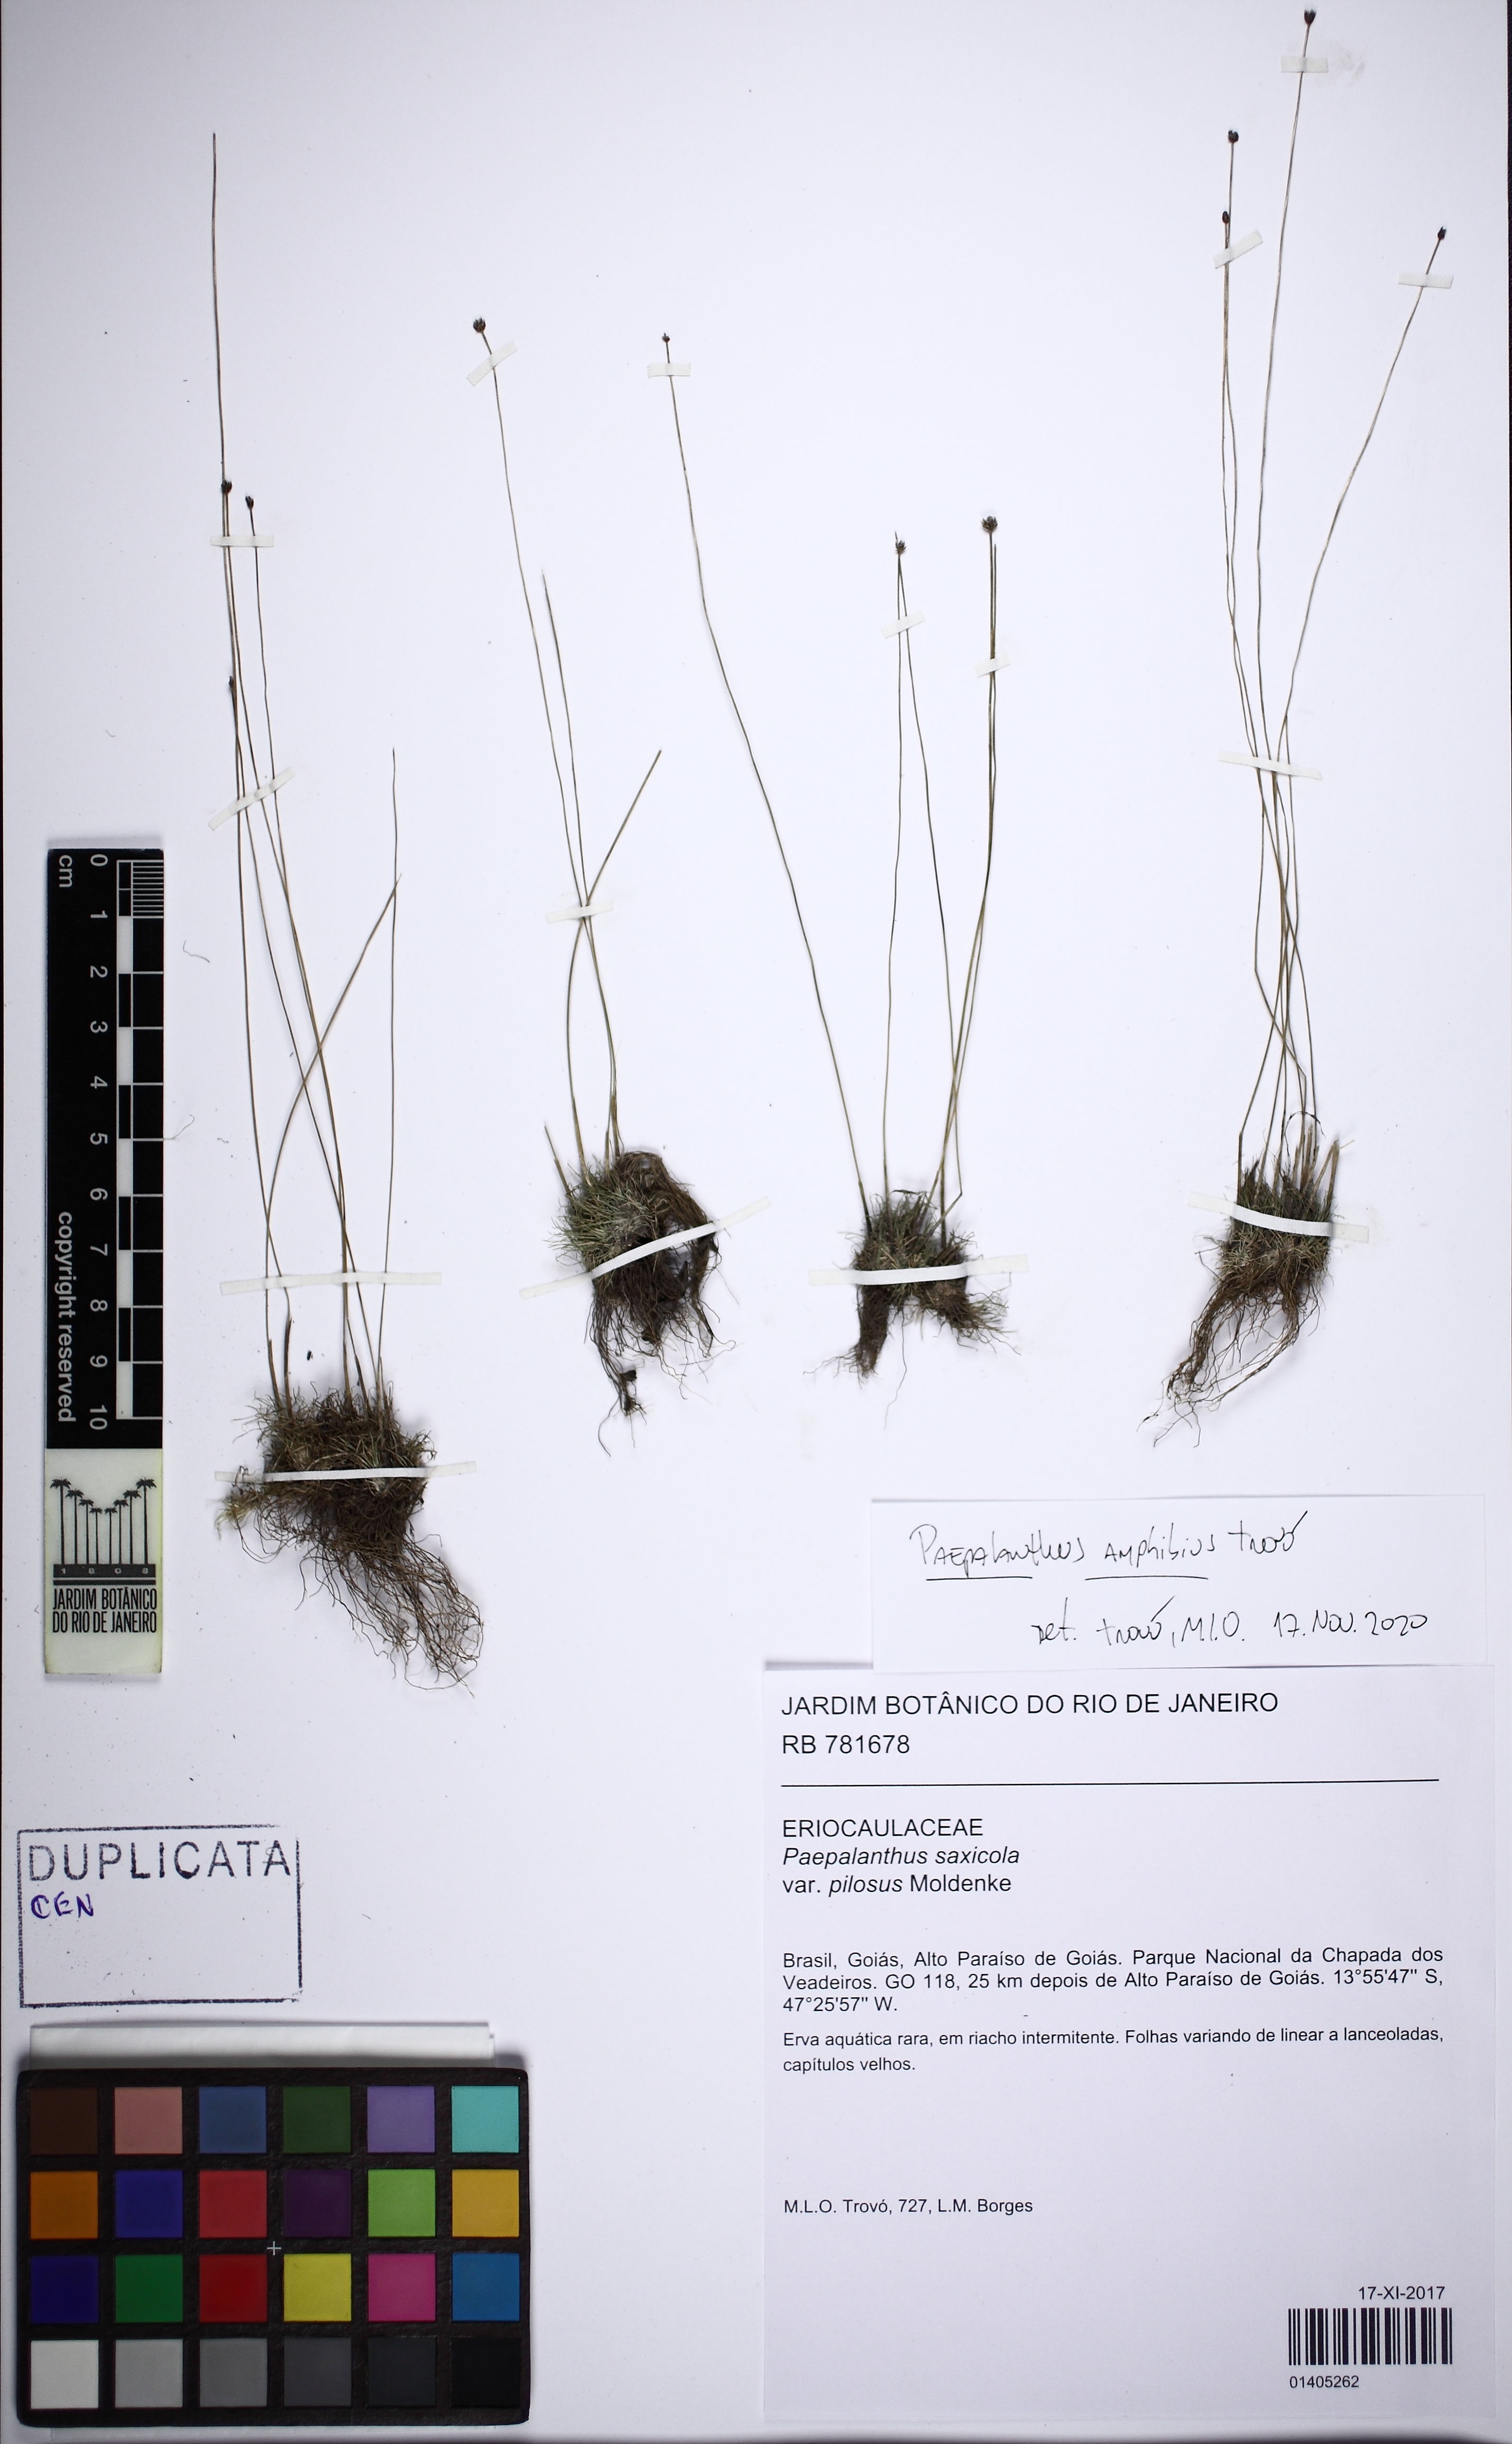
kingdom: Plantae
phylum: Tracheophyta
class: Liliopsida
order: Poales
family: Eriocaulaceae
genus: Syngonanthus
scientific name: Syngonanthus saxicola
